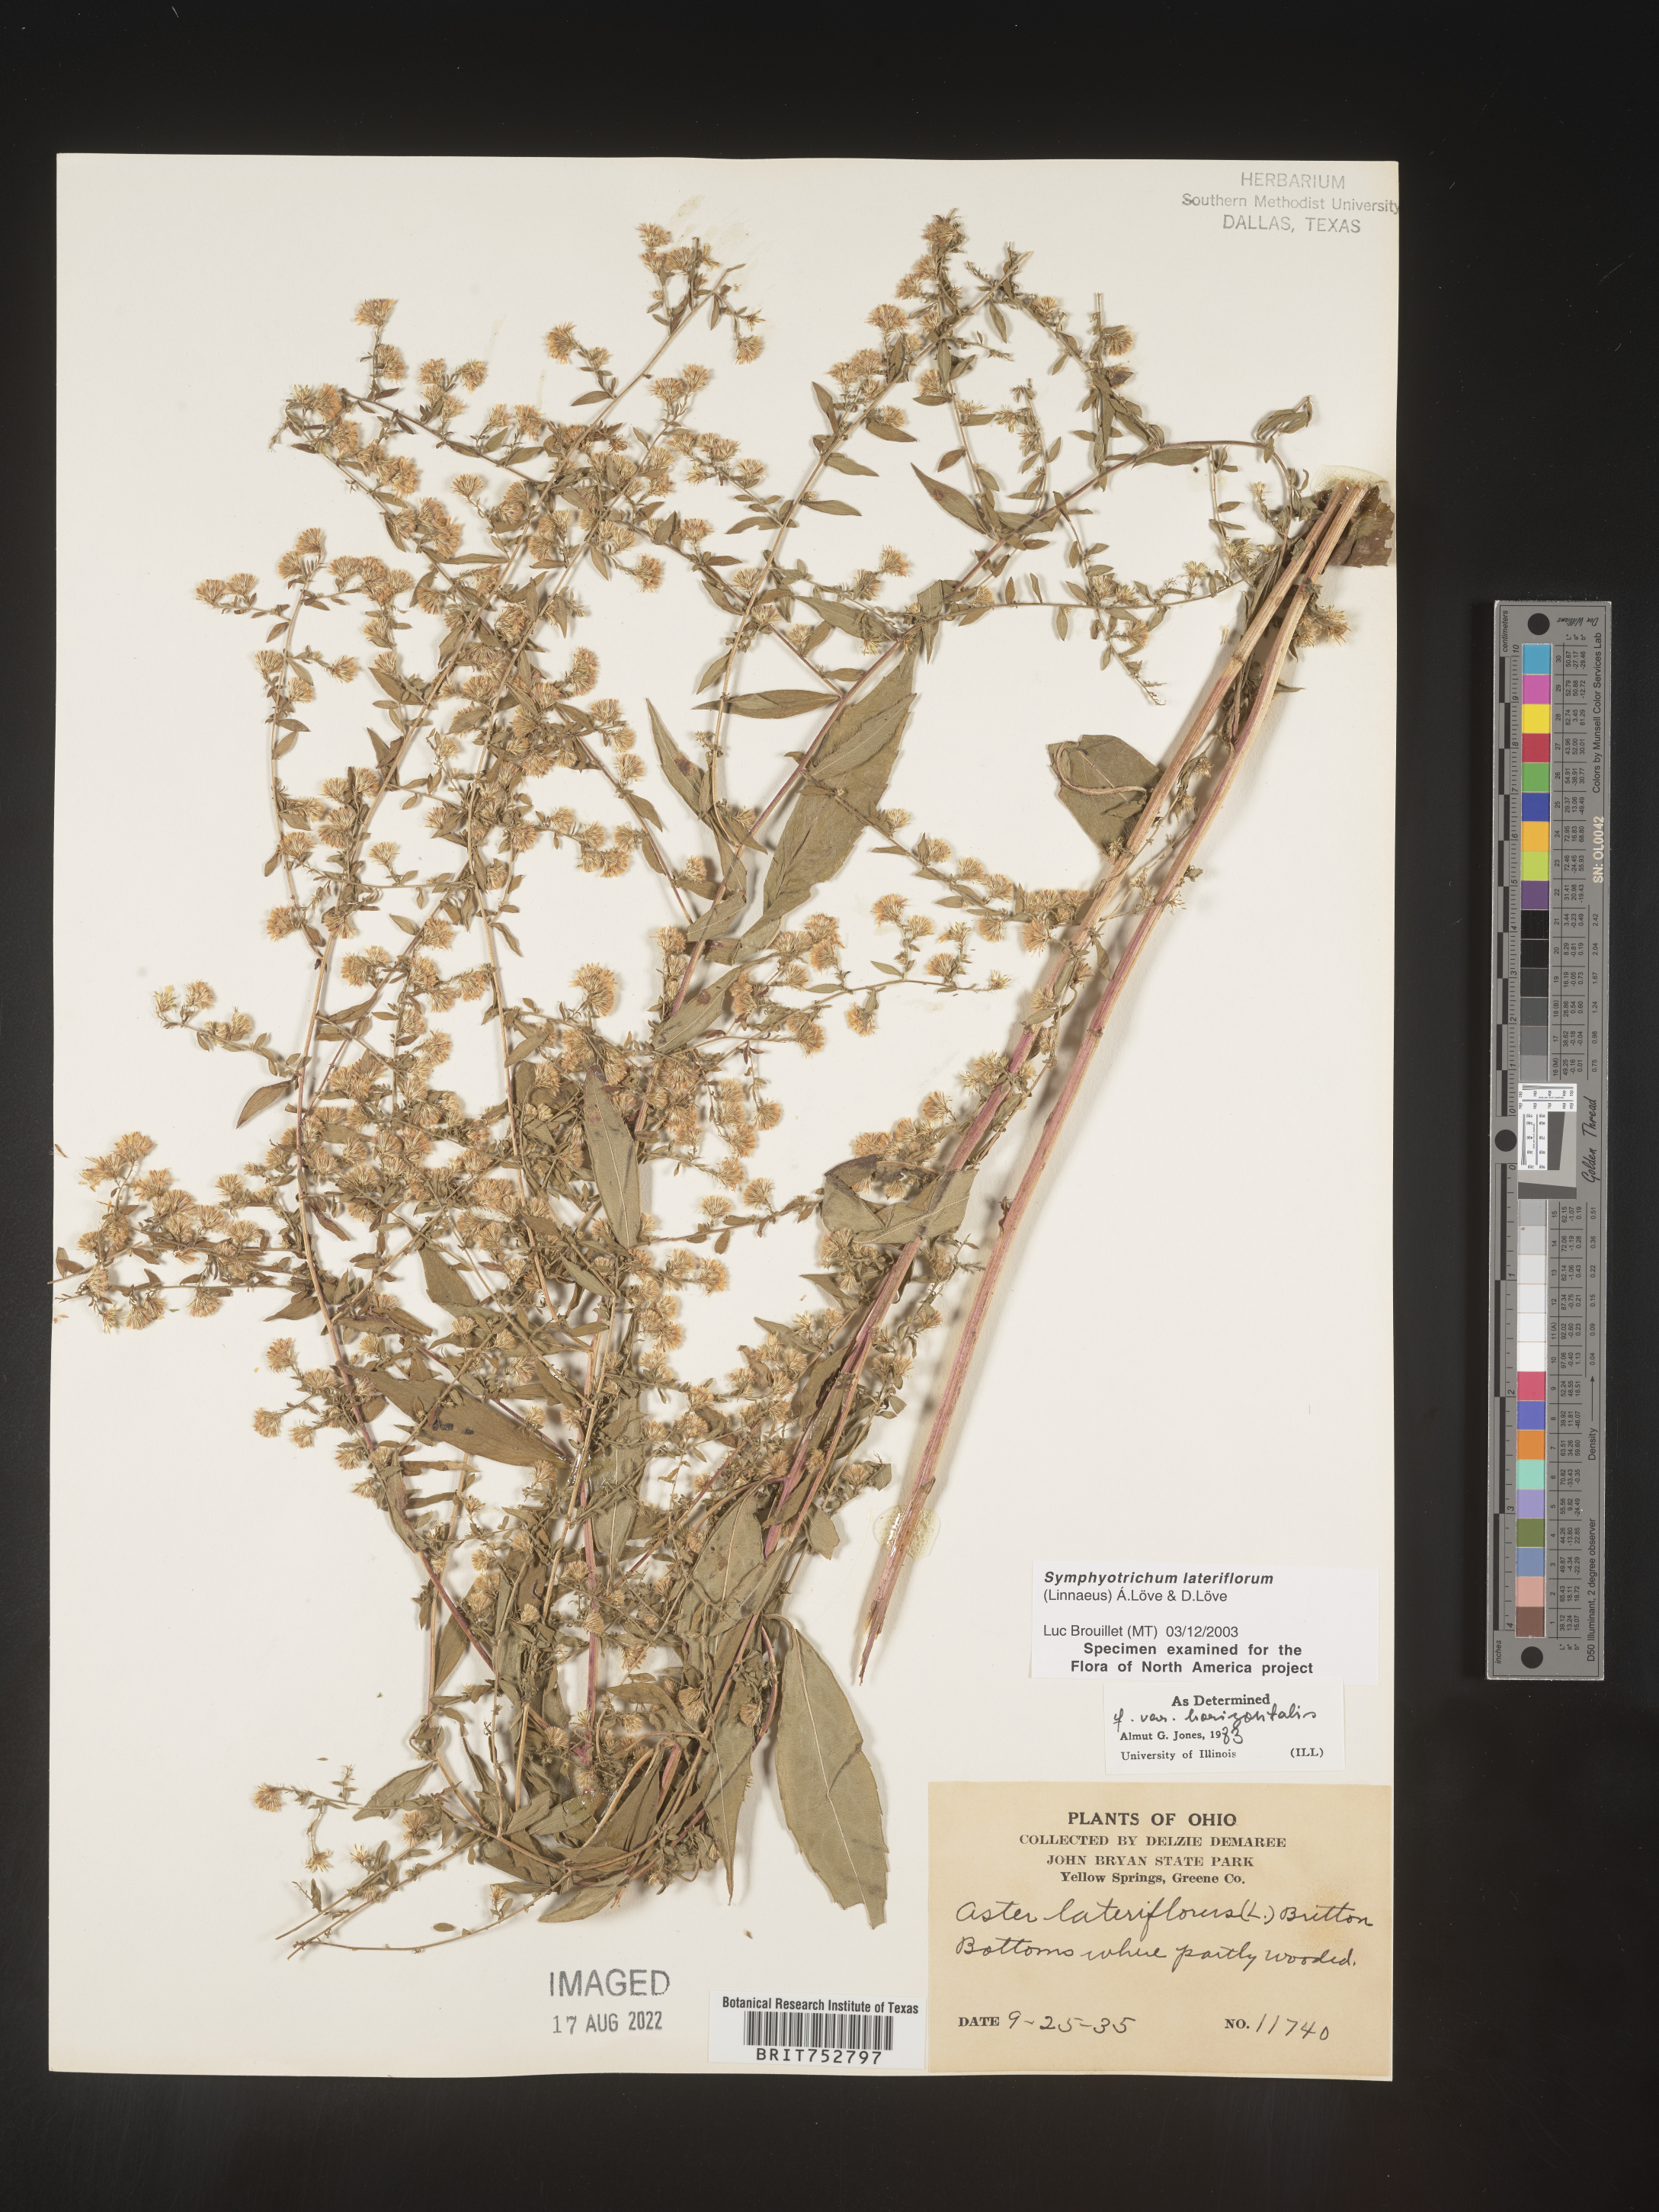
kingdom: Plantae
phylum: Tracheophyta
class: Magnoliopsida
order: Asterales
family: Asteraceae
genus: Symphyotrichum
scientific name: Symphyotrichum lateriflorum
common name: Calico aster
